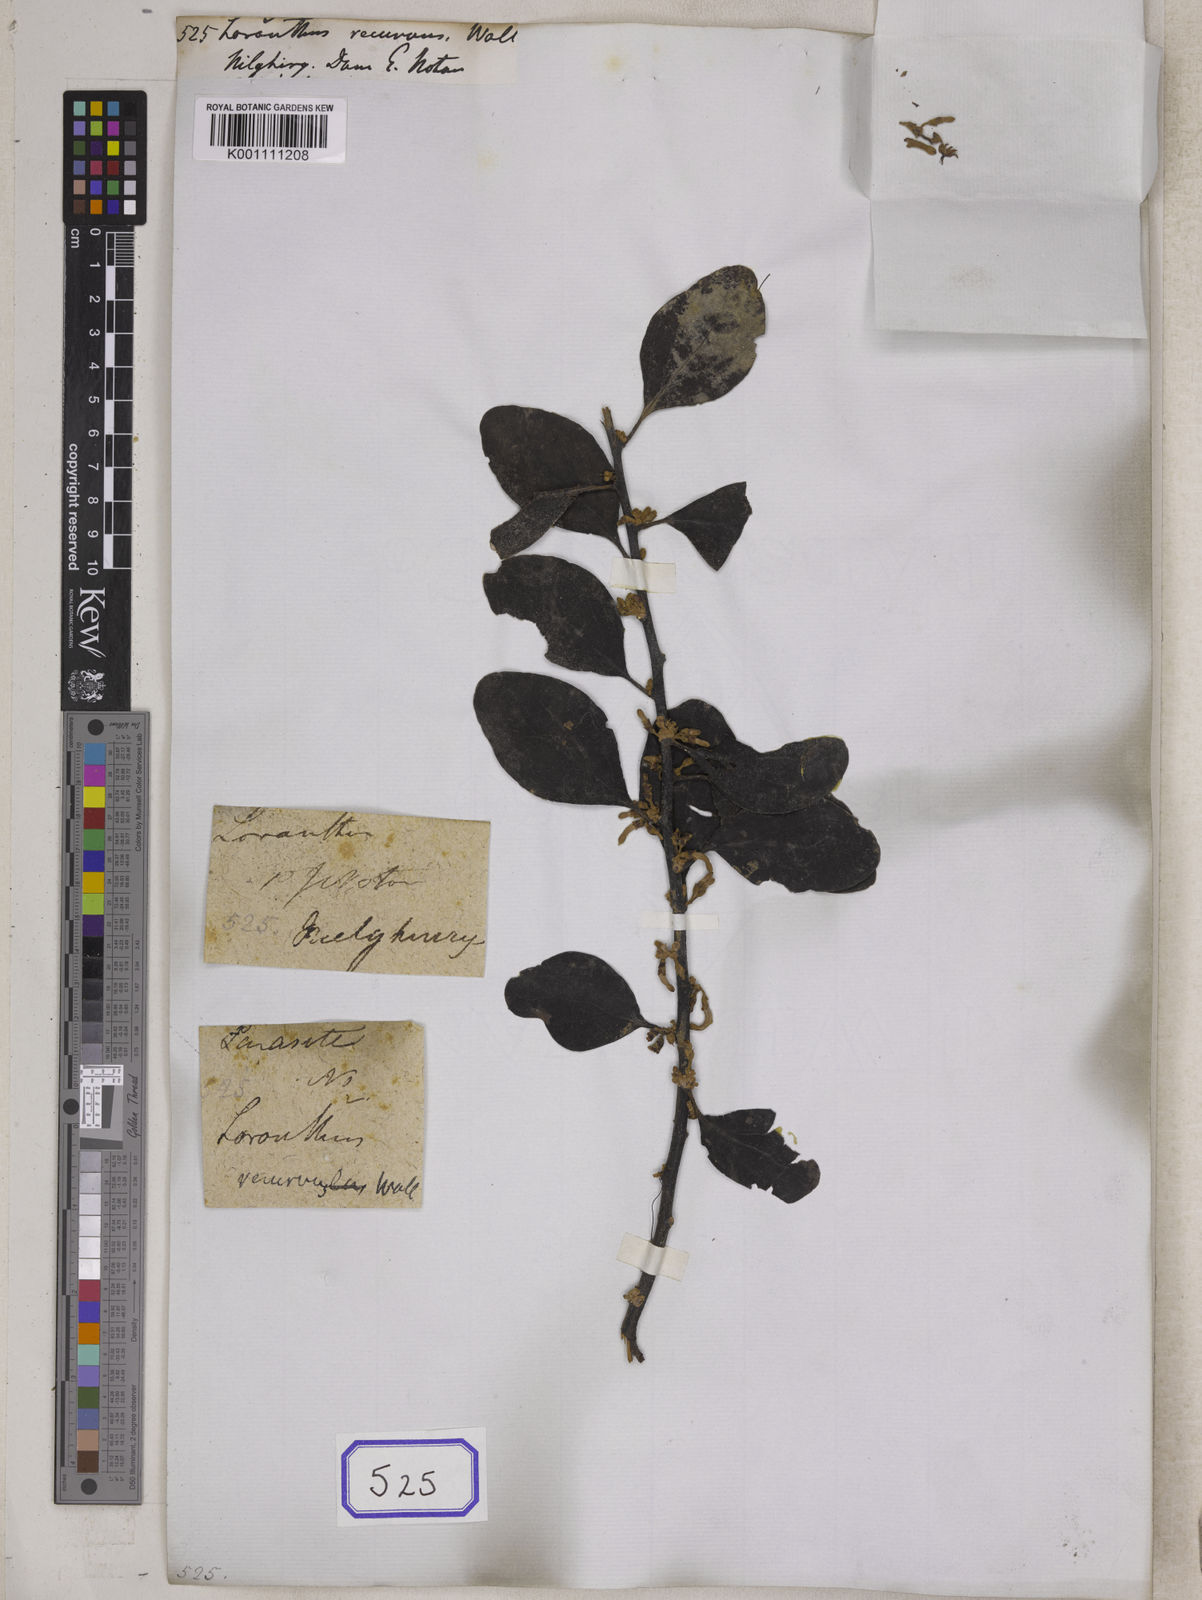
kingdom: Plantae
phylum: Tracheophyta
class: Magnoliopsida
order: Santalales
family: Loranthaceae
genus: Loranthus
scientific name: Loranthus
